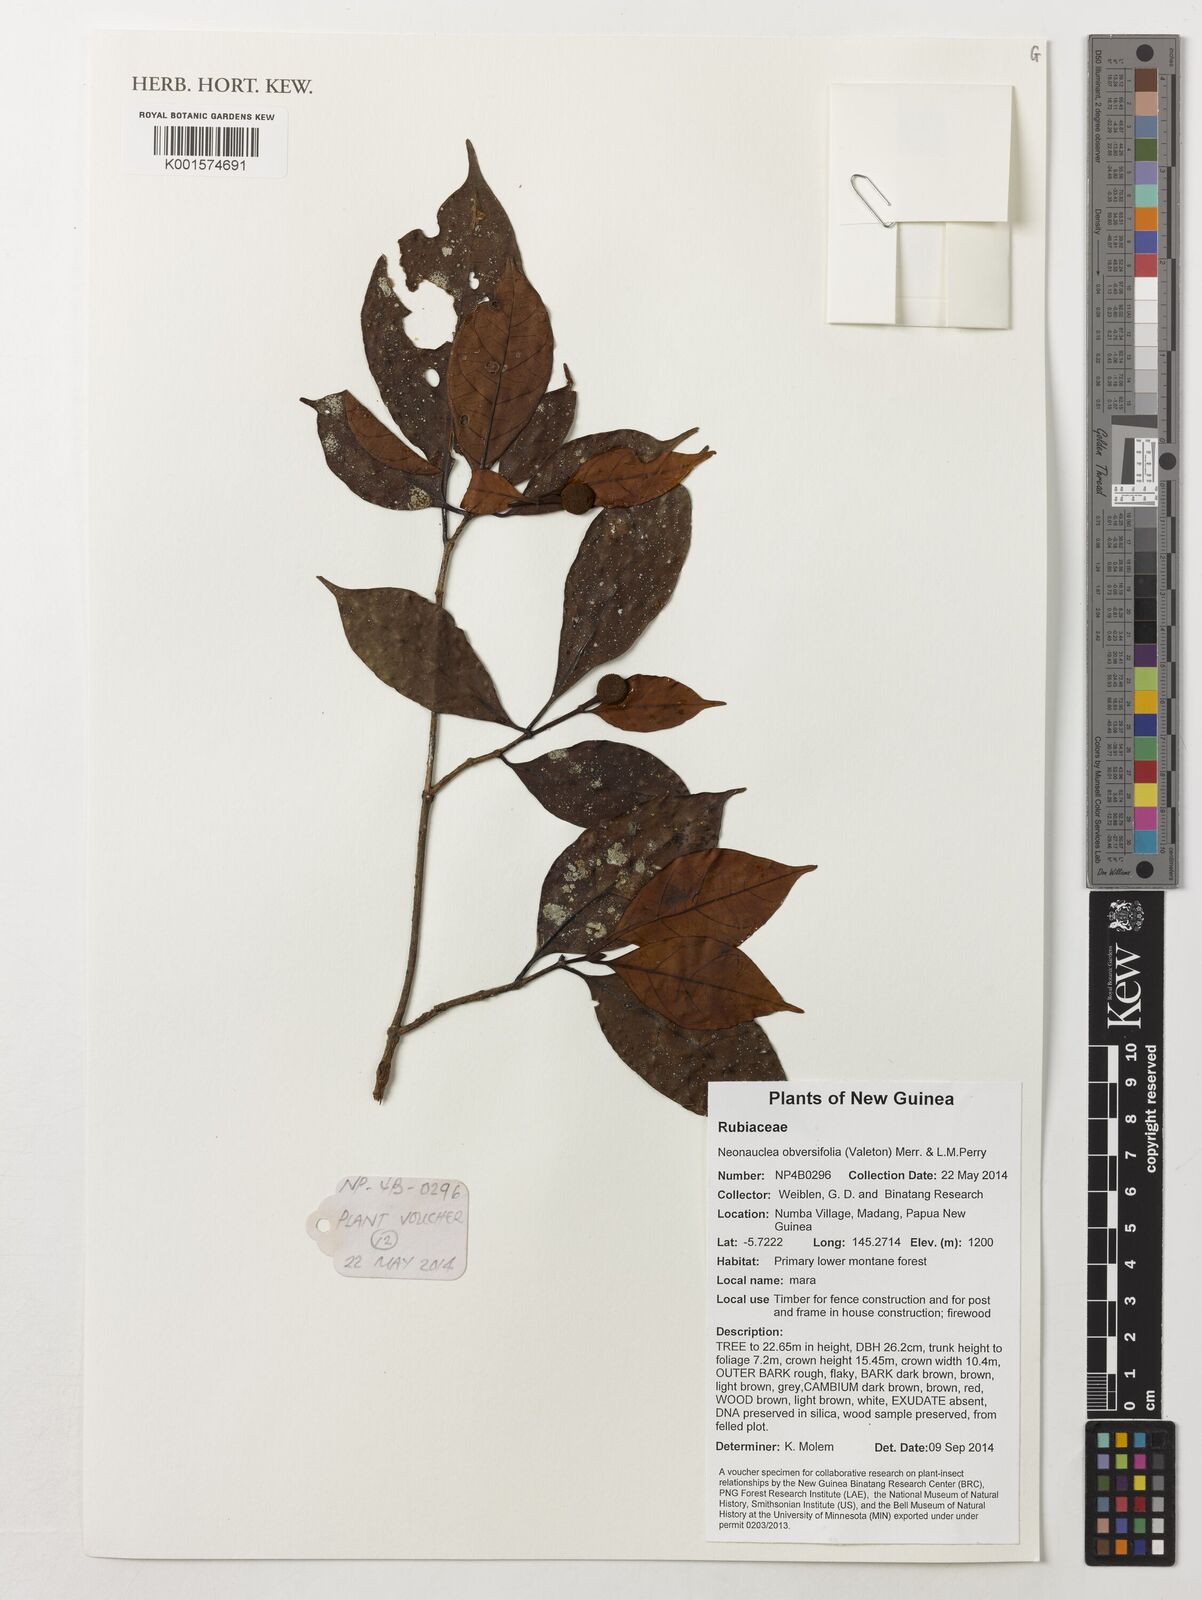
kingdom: Plantae
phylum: Tracheophyta
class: Magnoliopsida
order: Gentianales
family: Rubiaceae
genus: Neonauclea
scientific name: Neonauclea obversifolia
